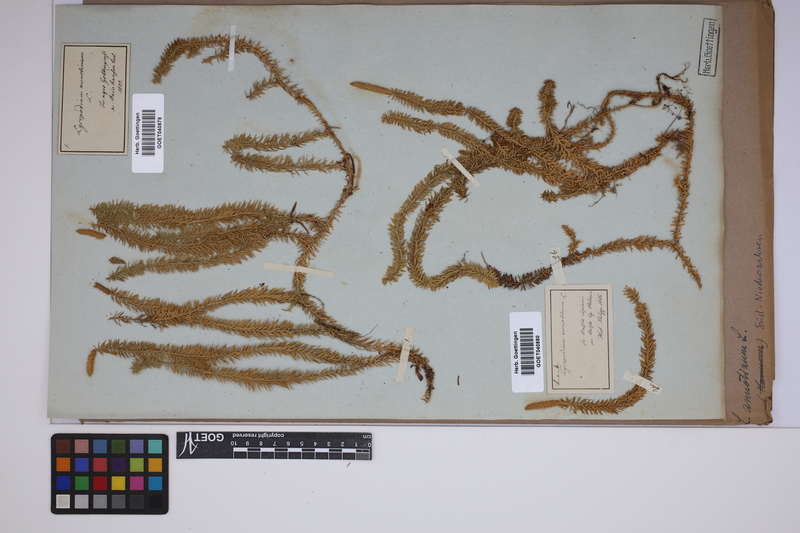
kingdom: Plantae
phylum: Tracheophyta
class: Lycopodiopsida
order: Lycopodiales
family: Lycopodiaceae
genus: Spinulum
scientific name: Spinulum annotinum
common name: Interrupted club-moss
